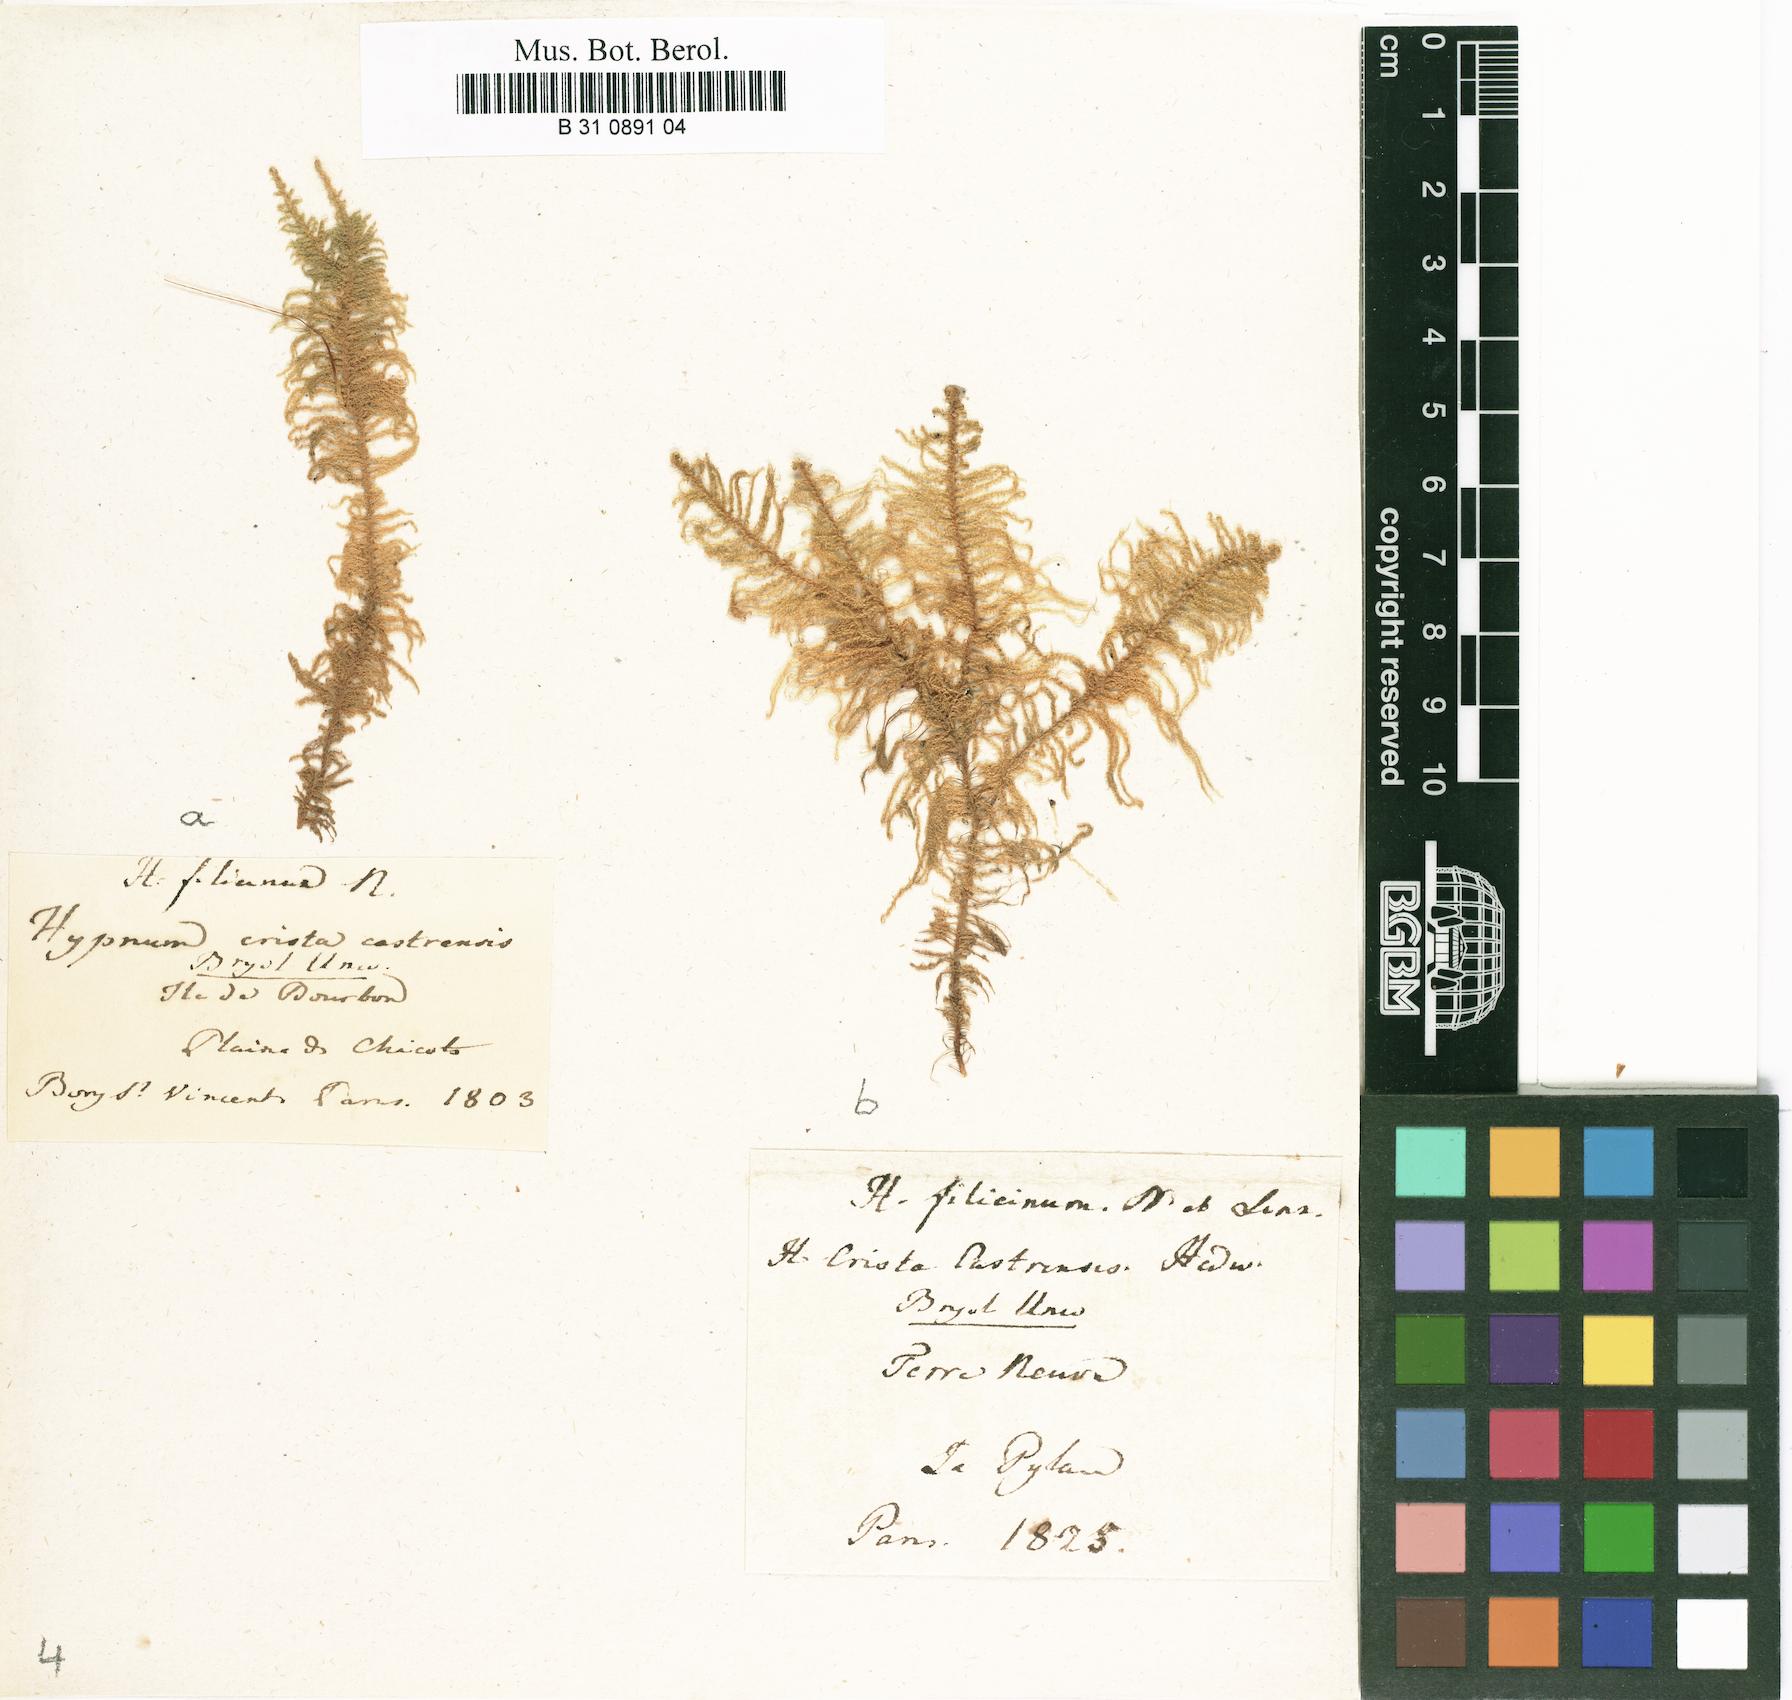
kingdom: Plantae
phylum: Bryophyta
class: Bryopsida
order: Hypnales
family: Pylaisiaceae
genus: Ptilium
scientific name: Ptilium crista-castrensis
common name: Knight's plume moss
